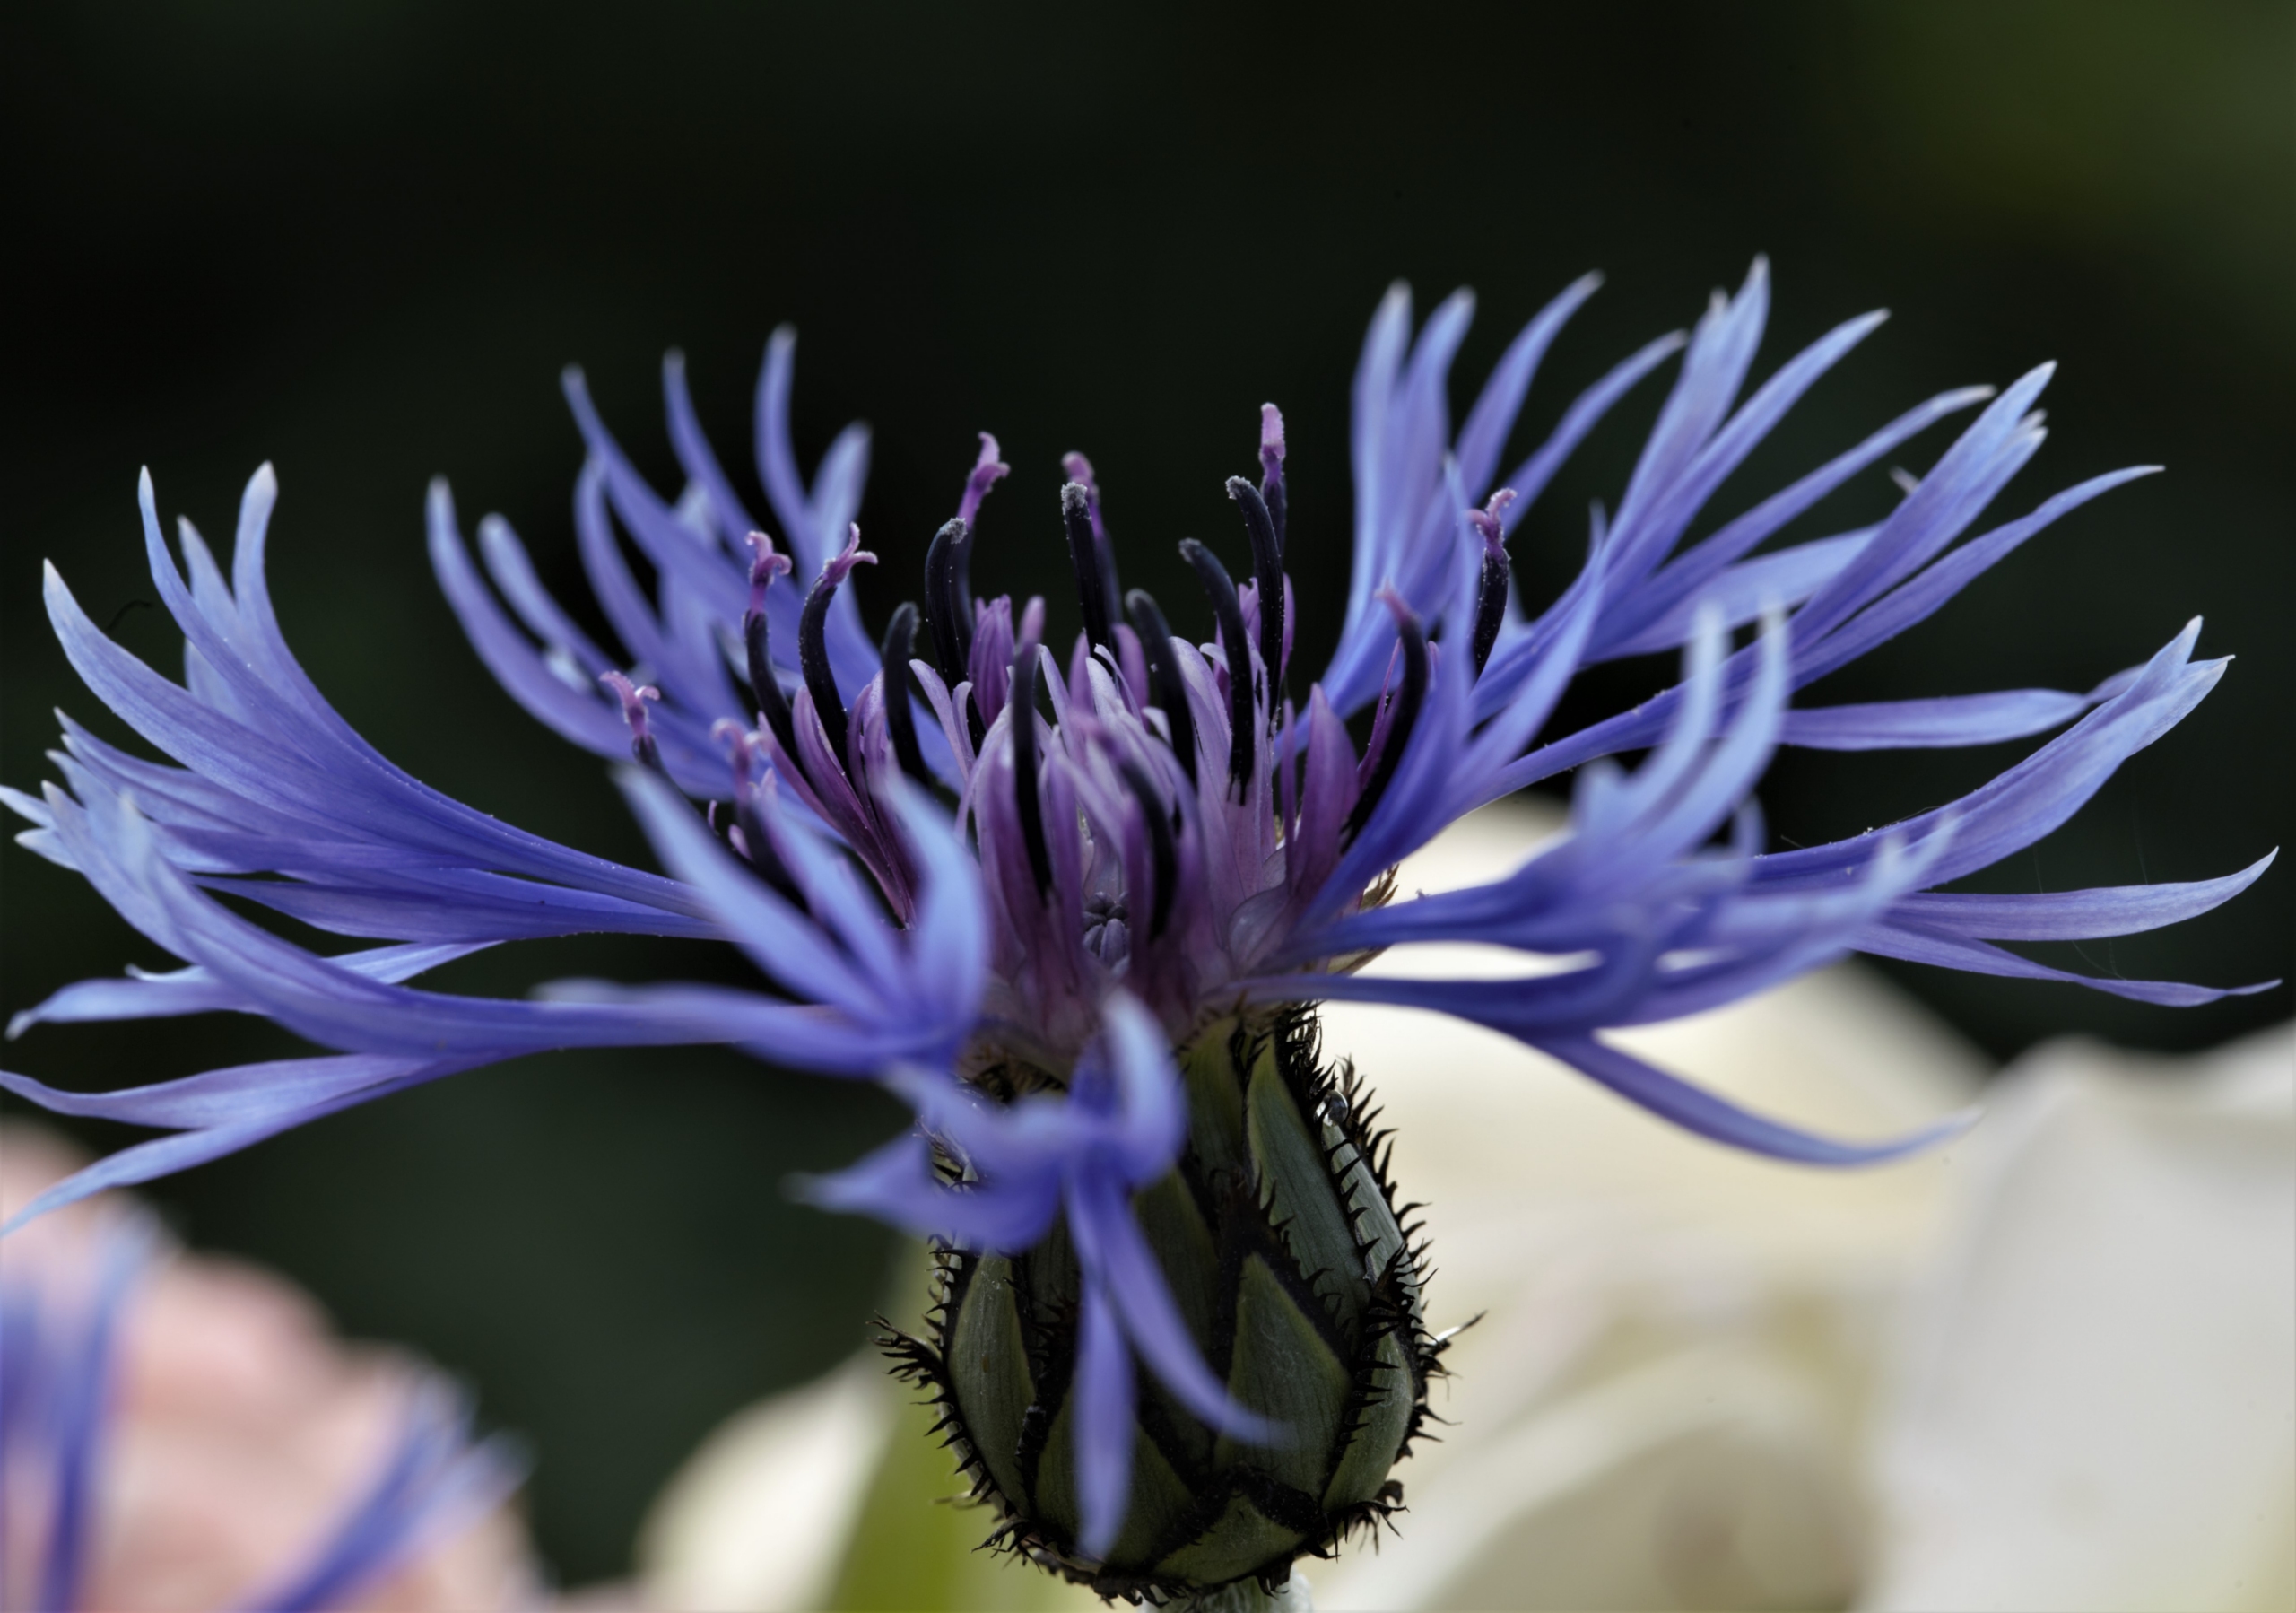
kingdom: Plantae
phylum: Tracheophyta
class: Magnoliopsida
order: Asterales
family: Asteraceae
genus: Centaurea
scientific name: Centaurea montana
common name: Bjerg-knopurt
